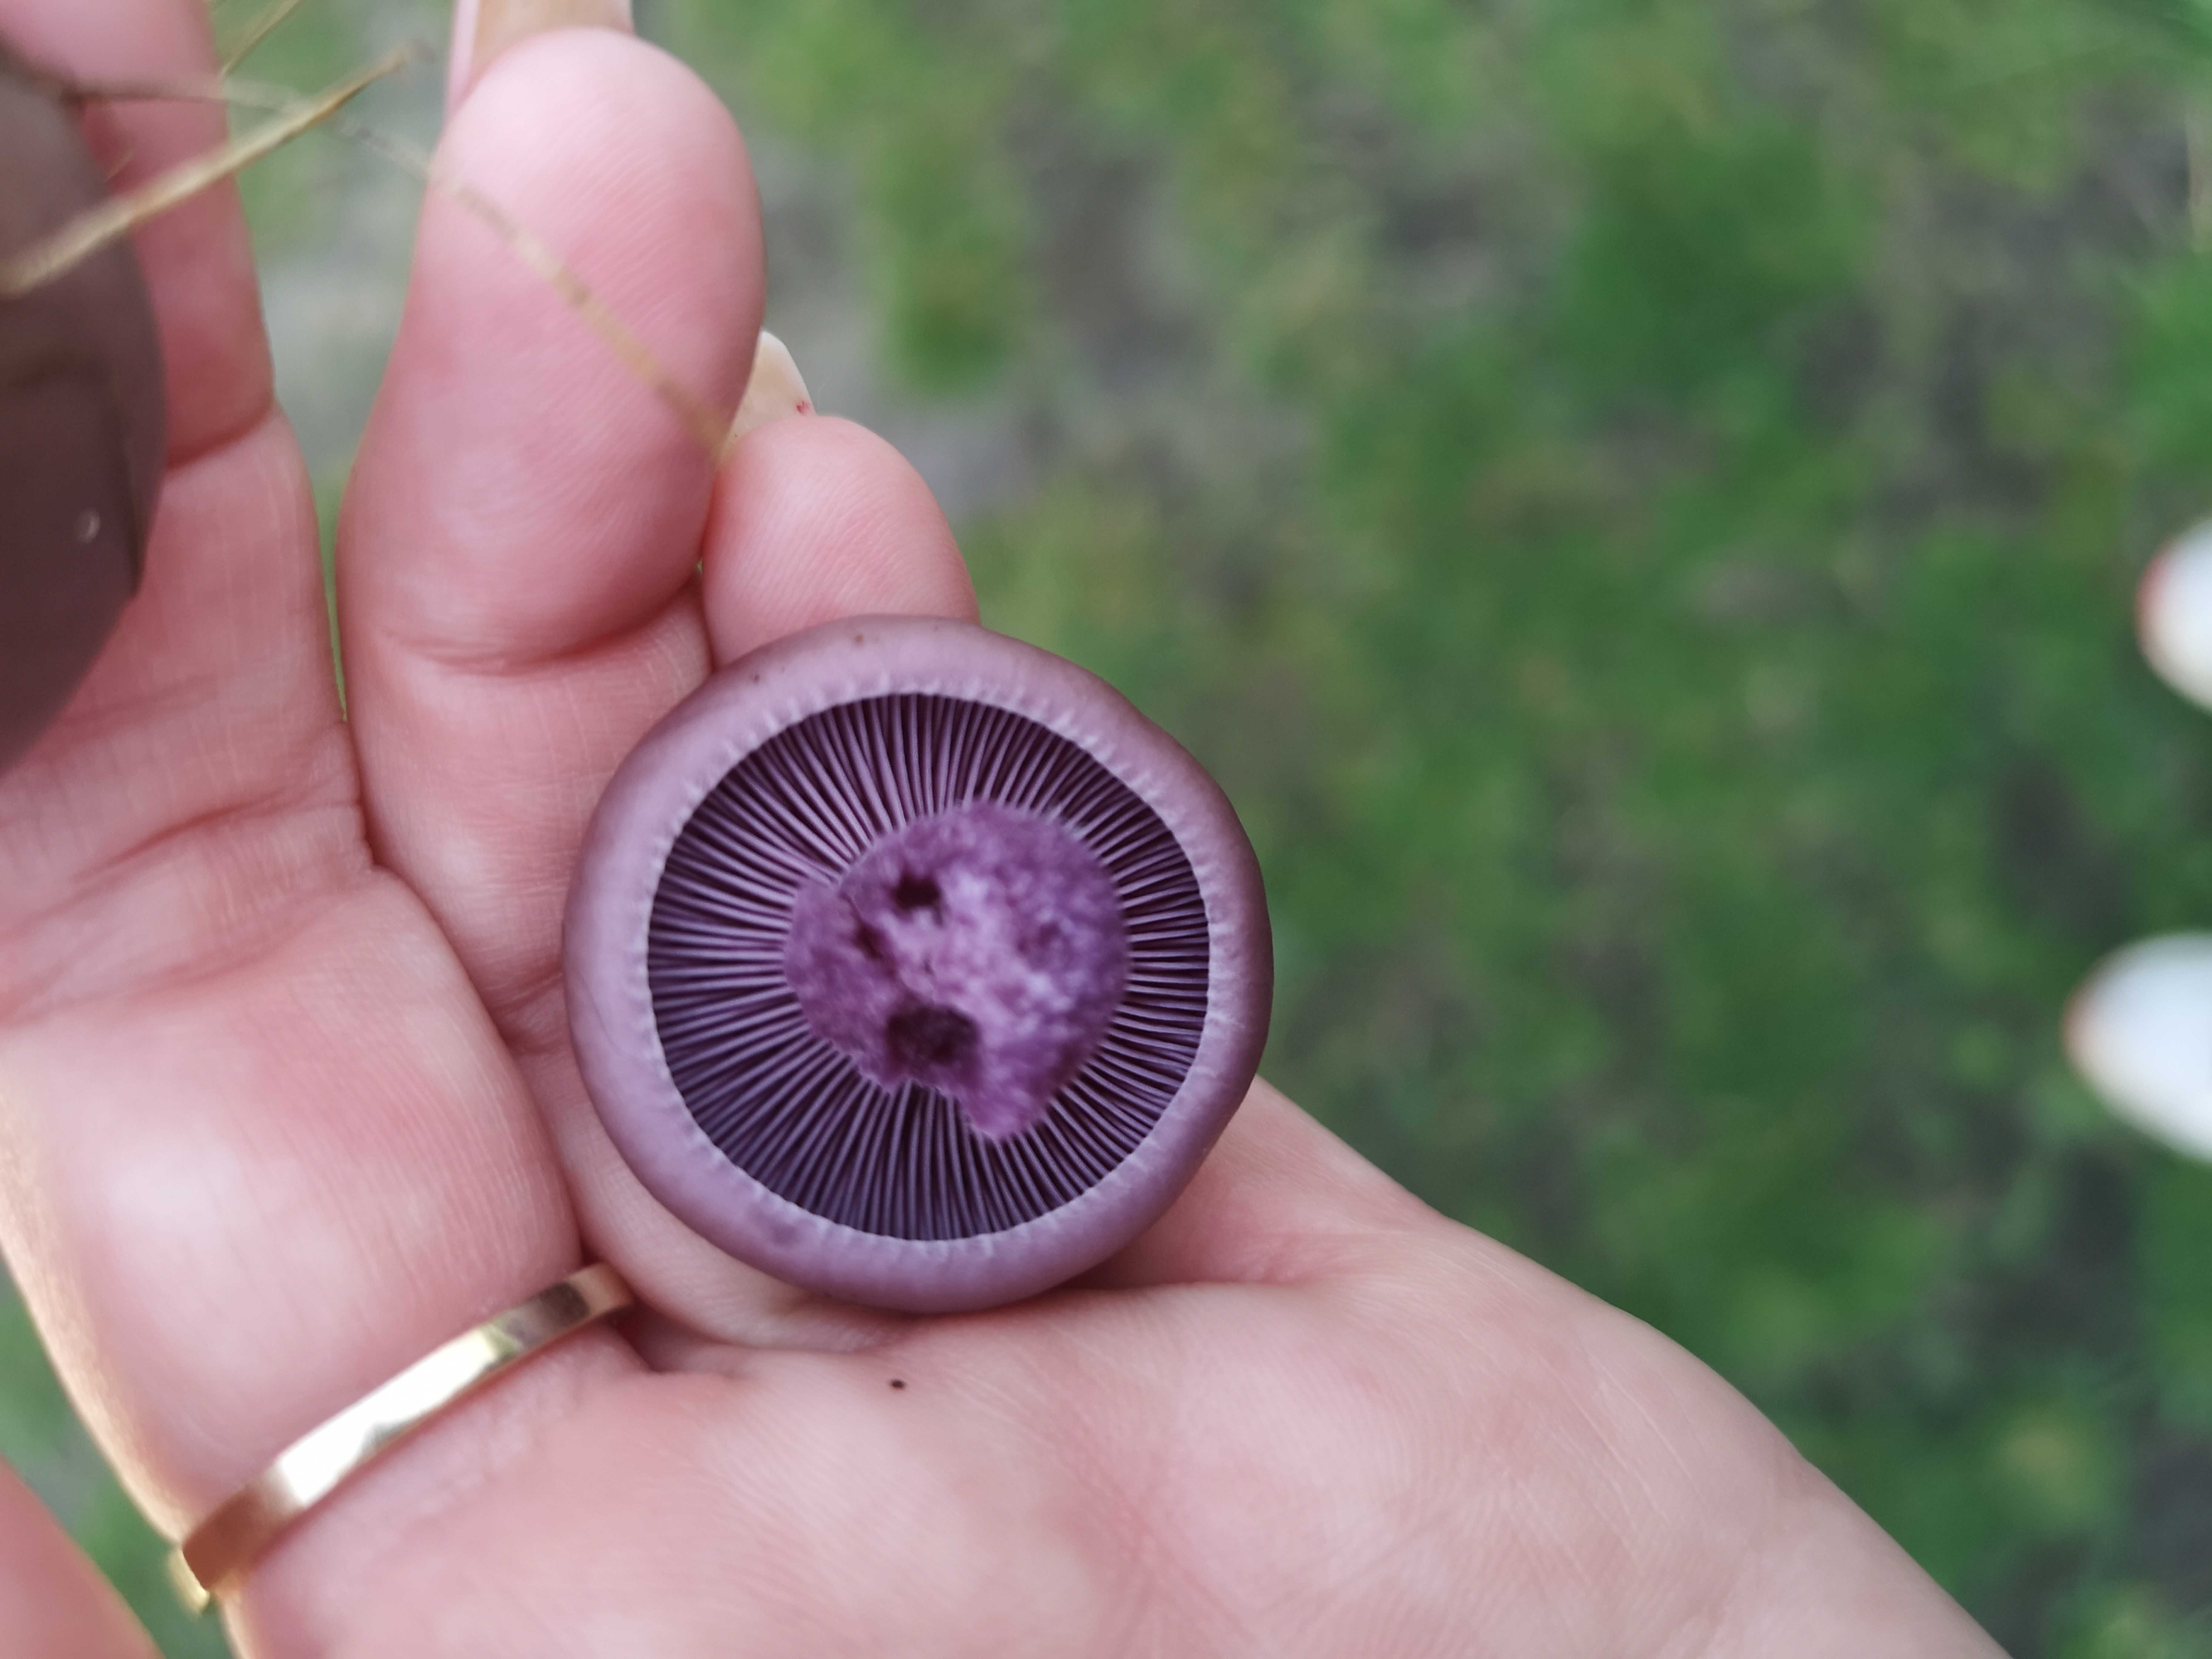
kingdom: Fungi
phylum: Basidiomycota
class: Agaricomycetes
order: Agaricales
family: Tricholomataceae
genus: Lepista
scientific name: Lepista nuda
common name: violet hekseringshat
